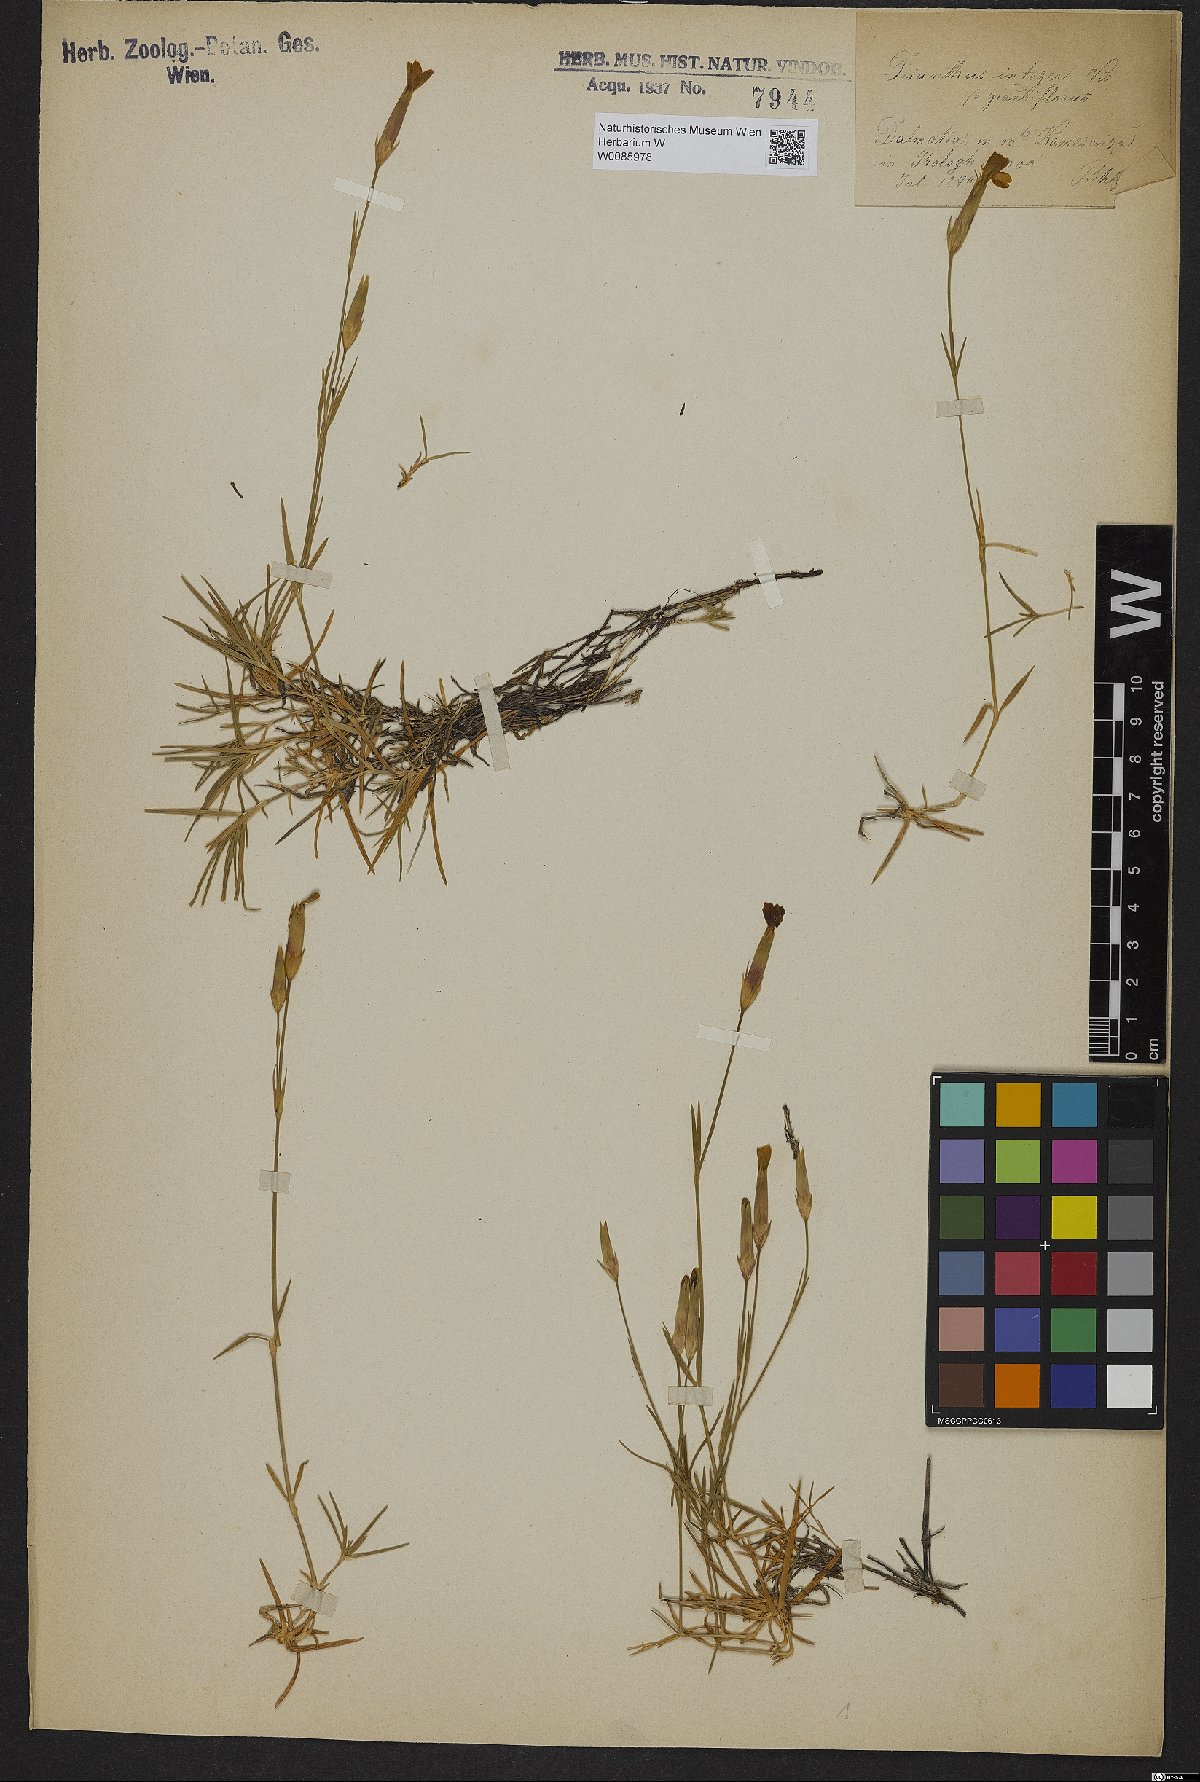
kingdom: Plantae
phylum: Tracheophyta
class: Magnoliopsida
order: Caryophyllales
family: Caryophyllaceae
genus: Dianthus
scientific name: Dianthus petraeus
